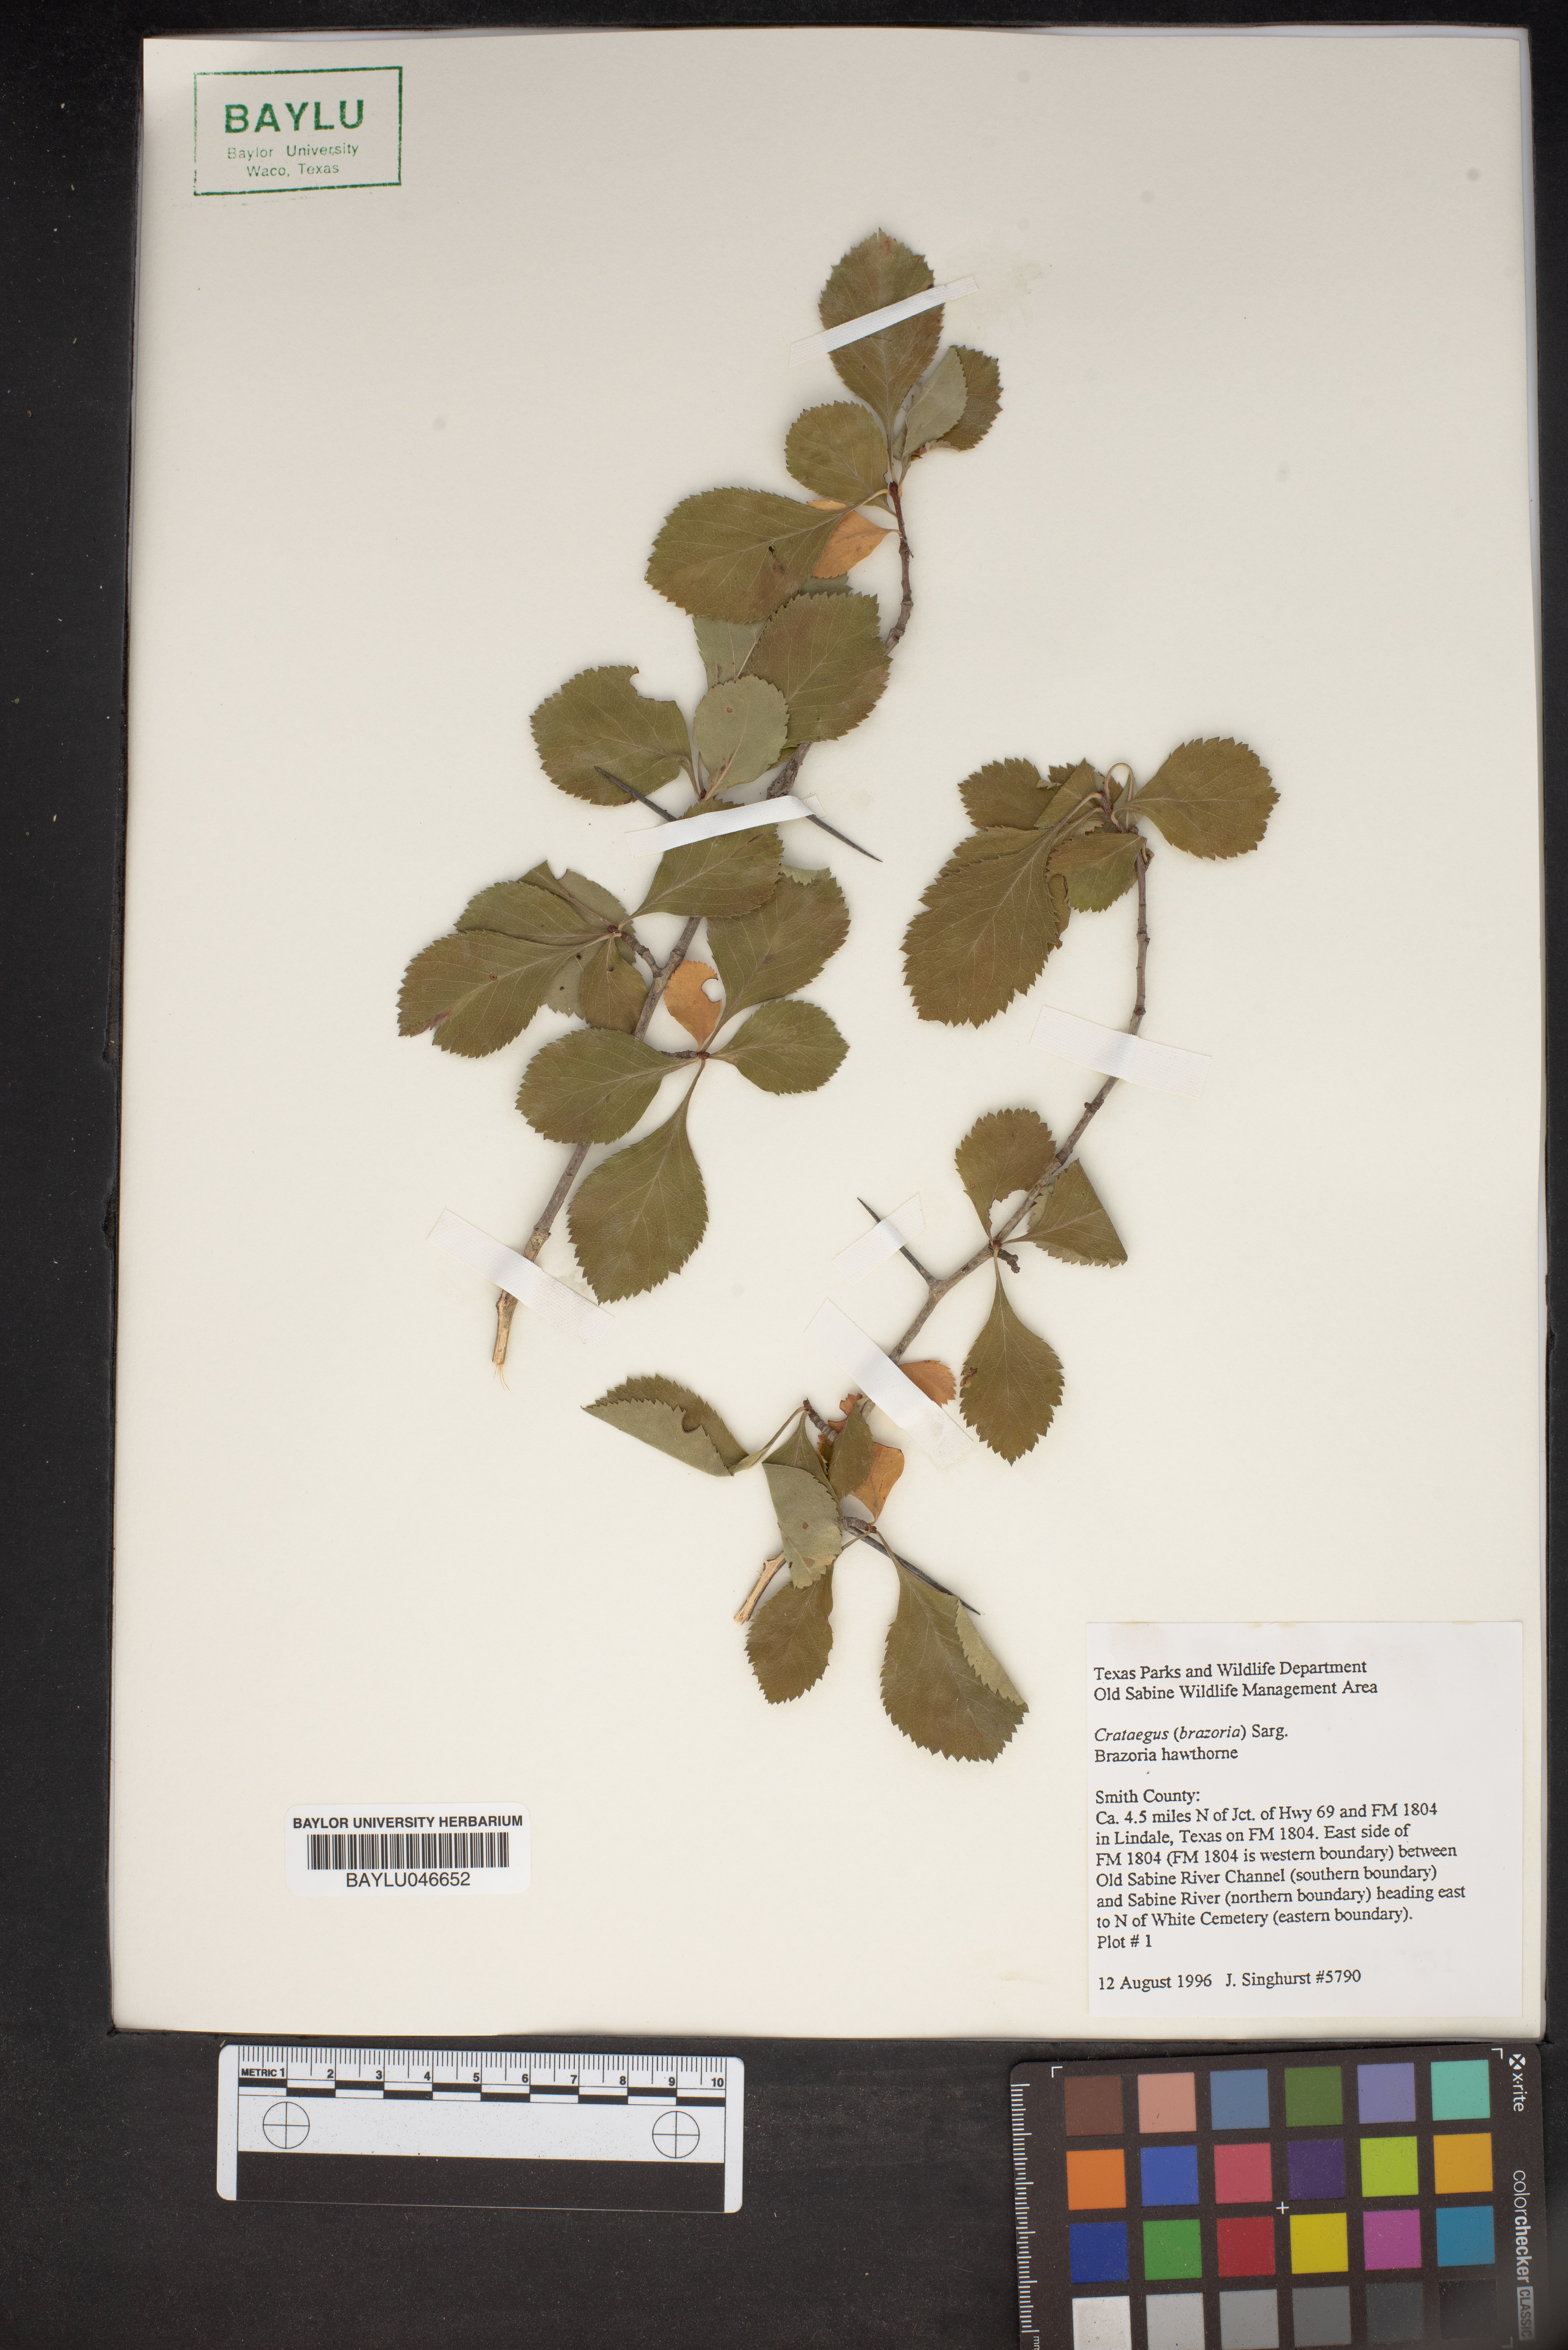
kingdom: Plantae
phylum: Tracheophyta
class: Magnoliopsida
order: Rosales
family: Rosaceae
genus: Crataegus
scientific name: Crataegus brazoria
